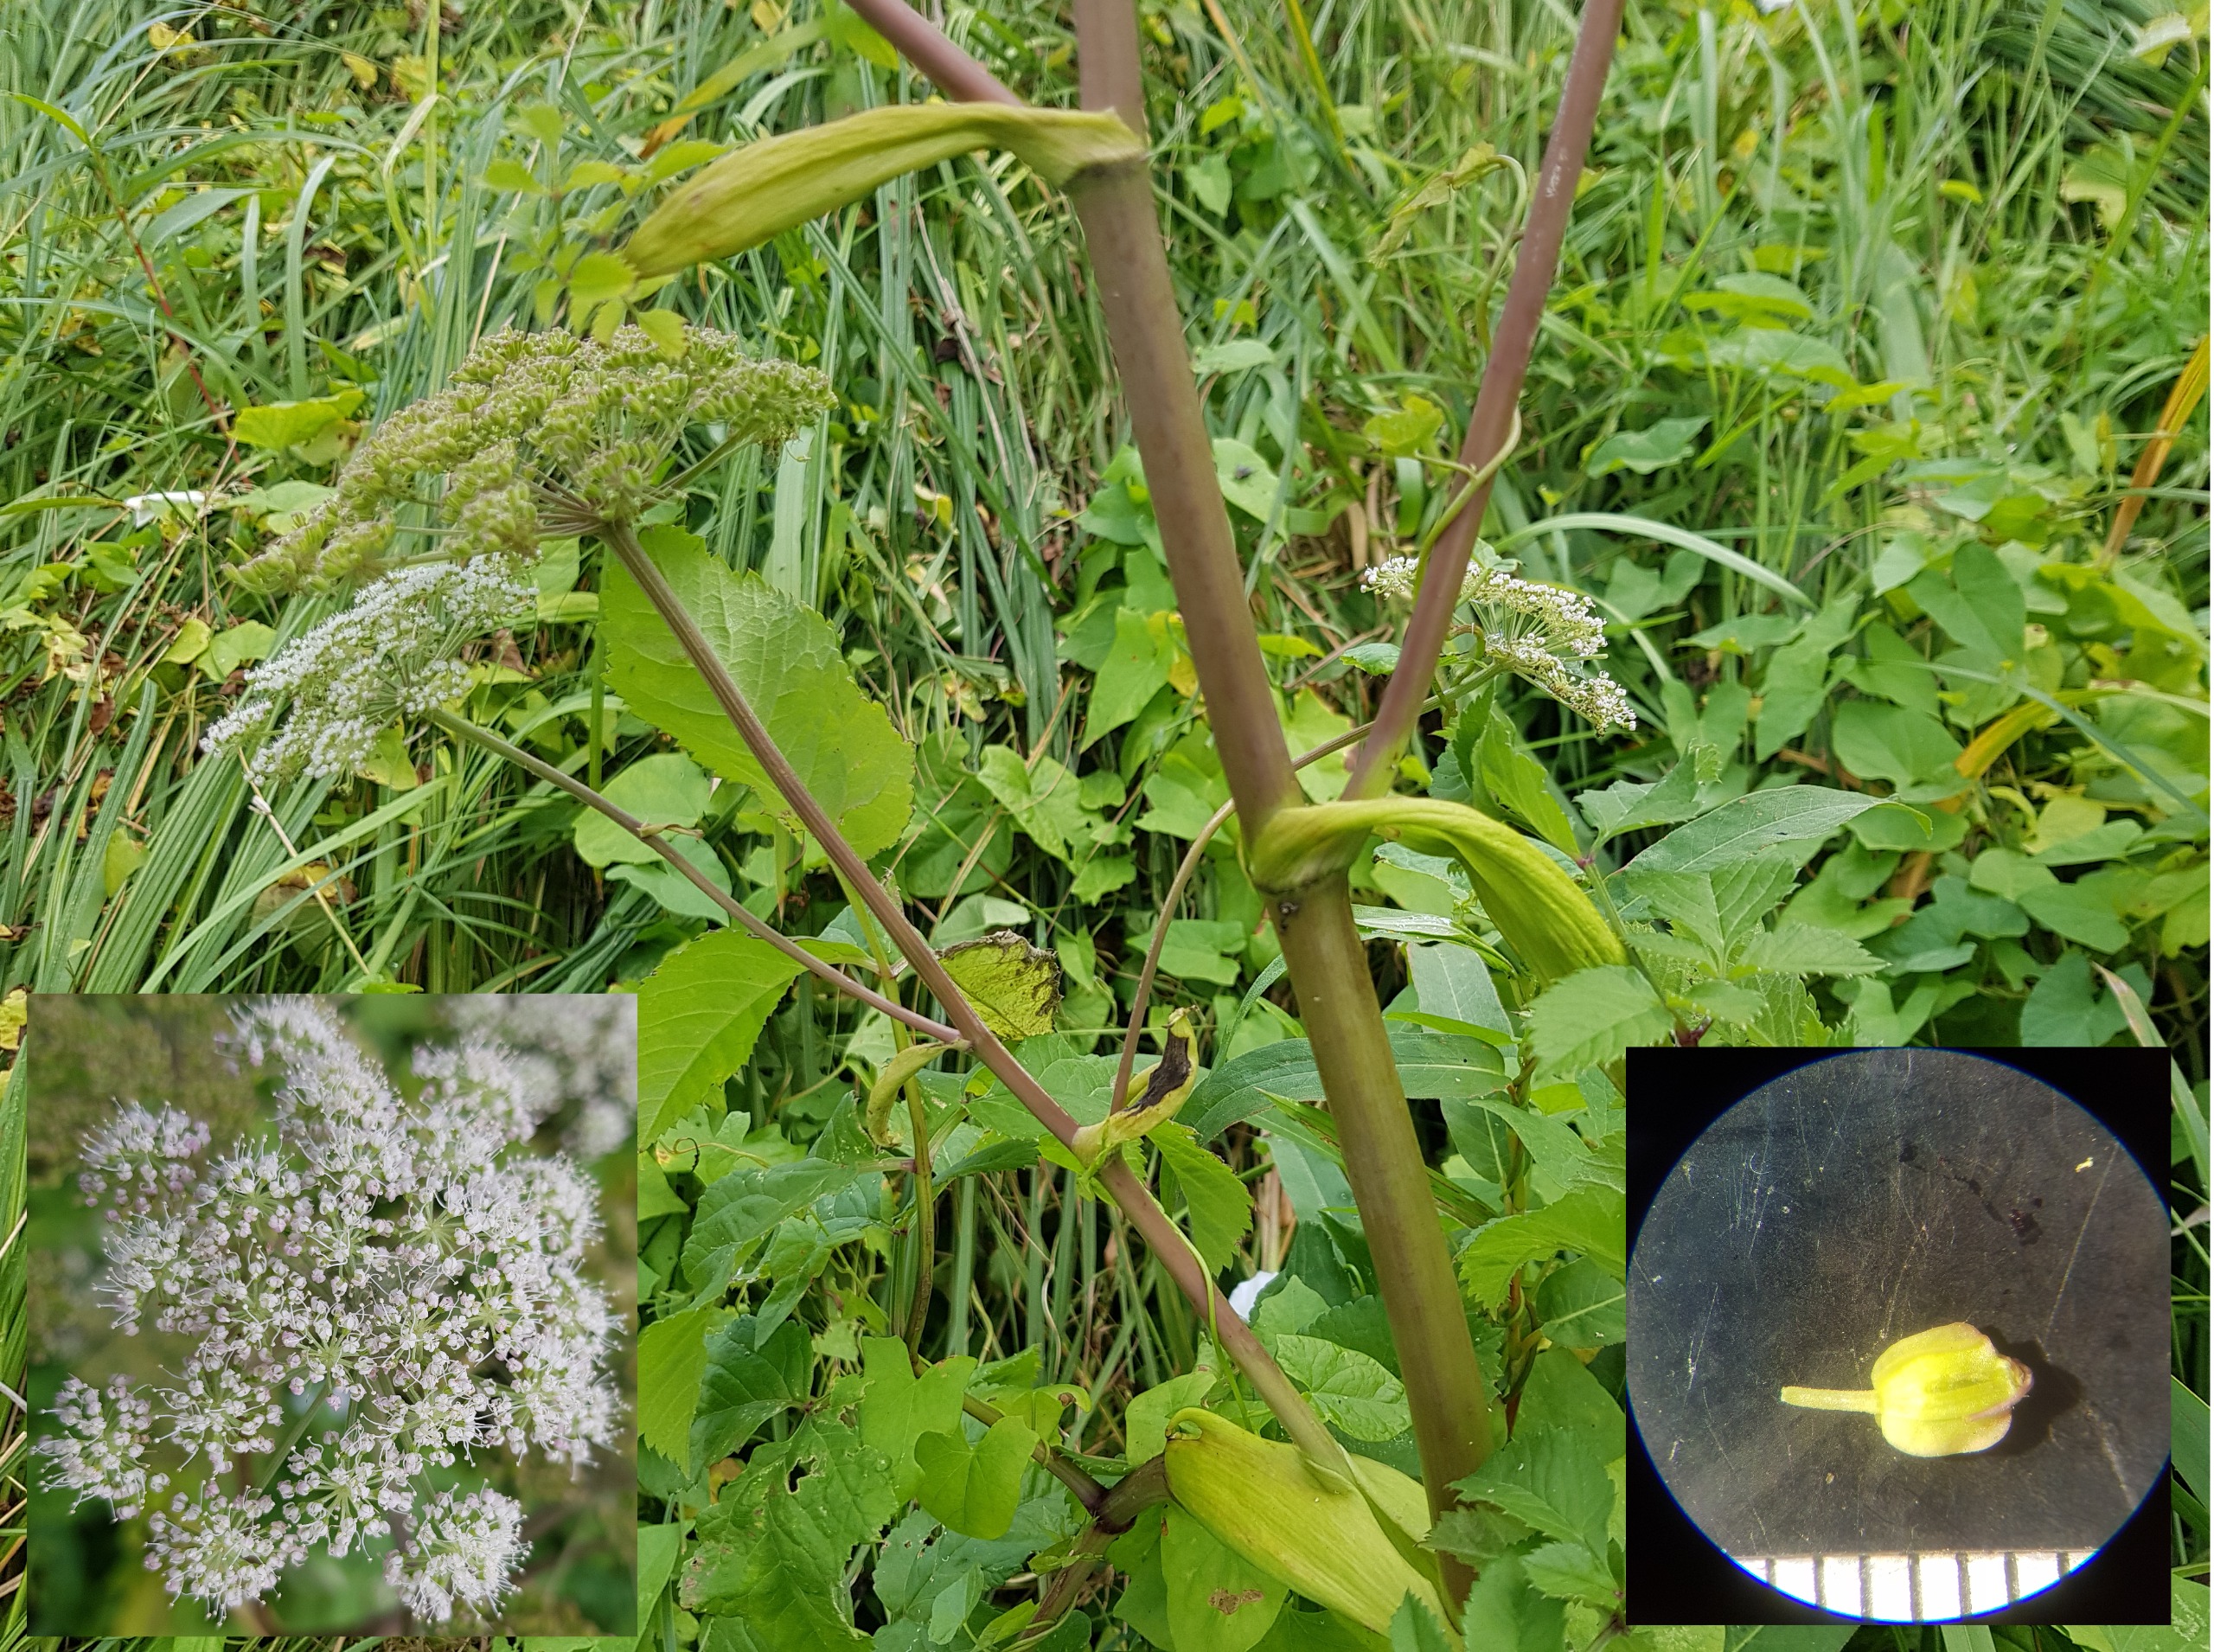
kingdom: Plantae
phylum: Tracheophyta
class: Magnoliopsida
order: Apiales
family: Apiaceae
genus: Angelica
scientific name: Angelica sylvestris
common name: Angelik
